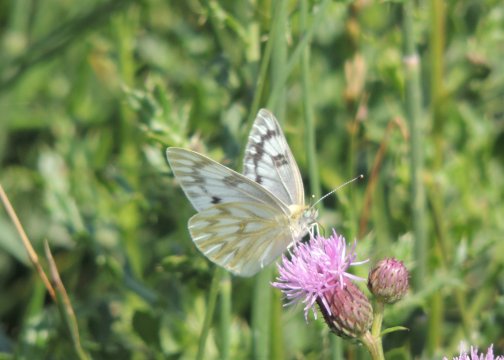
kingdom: Animalia
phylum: Arthropoda
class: Insecta
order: Lepidoptera
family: Pieridae
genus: Pontia
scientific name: Pontia occidentalis
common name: Western White
